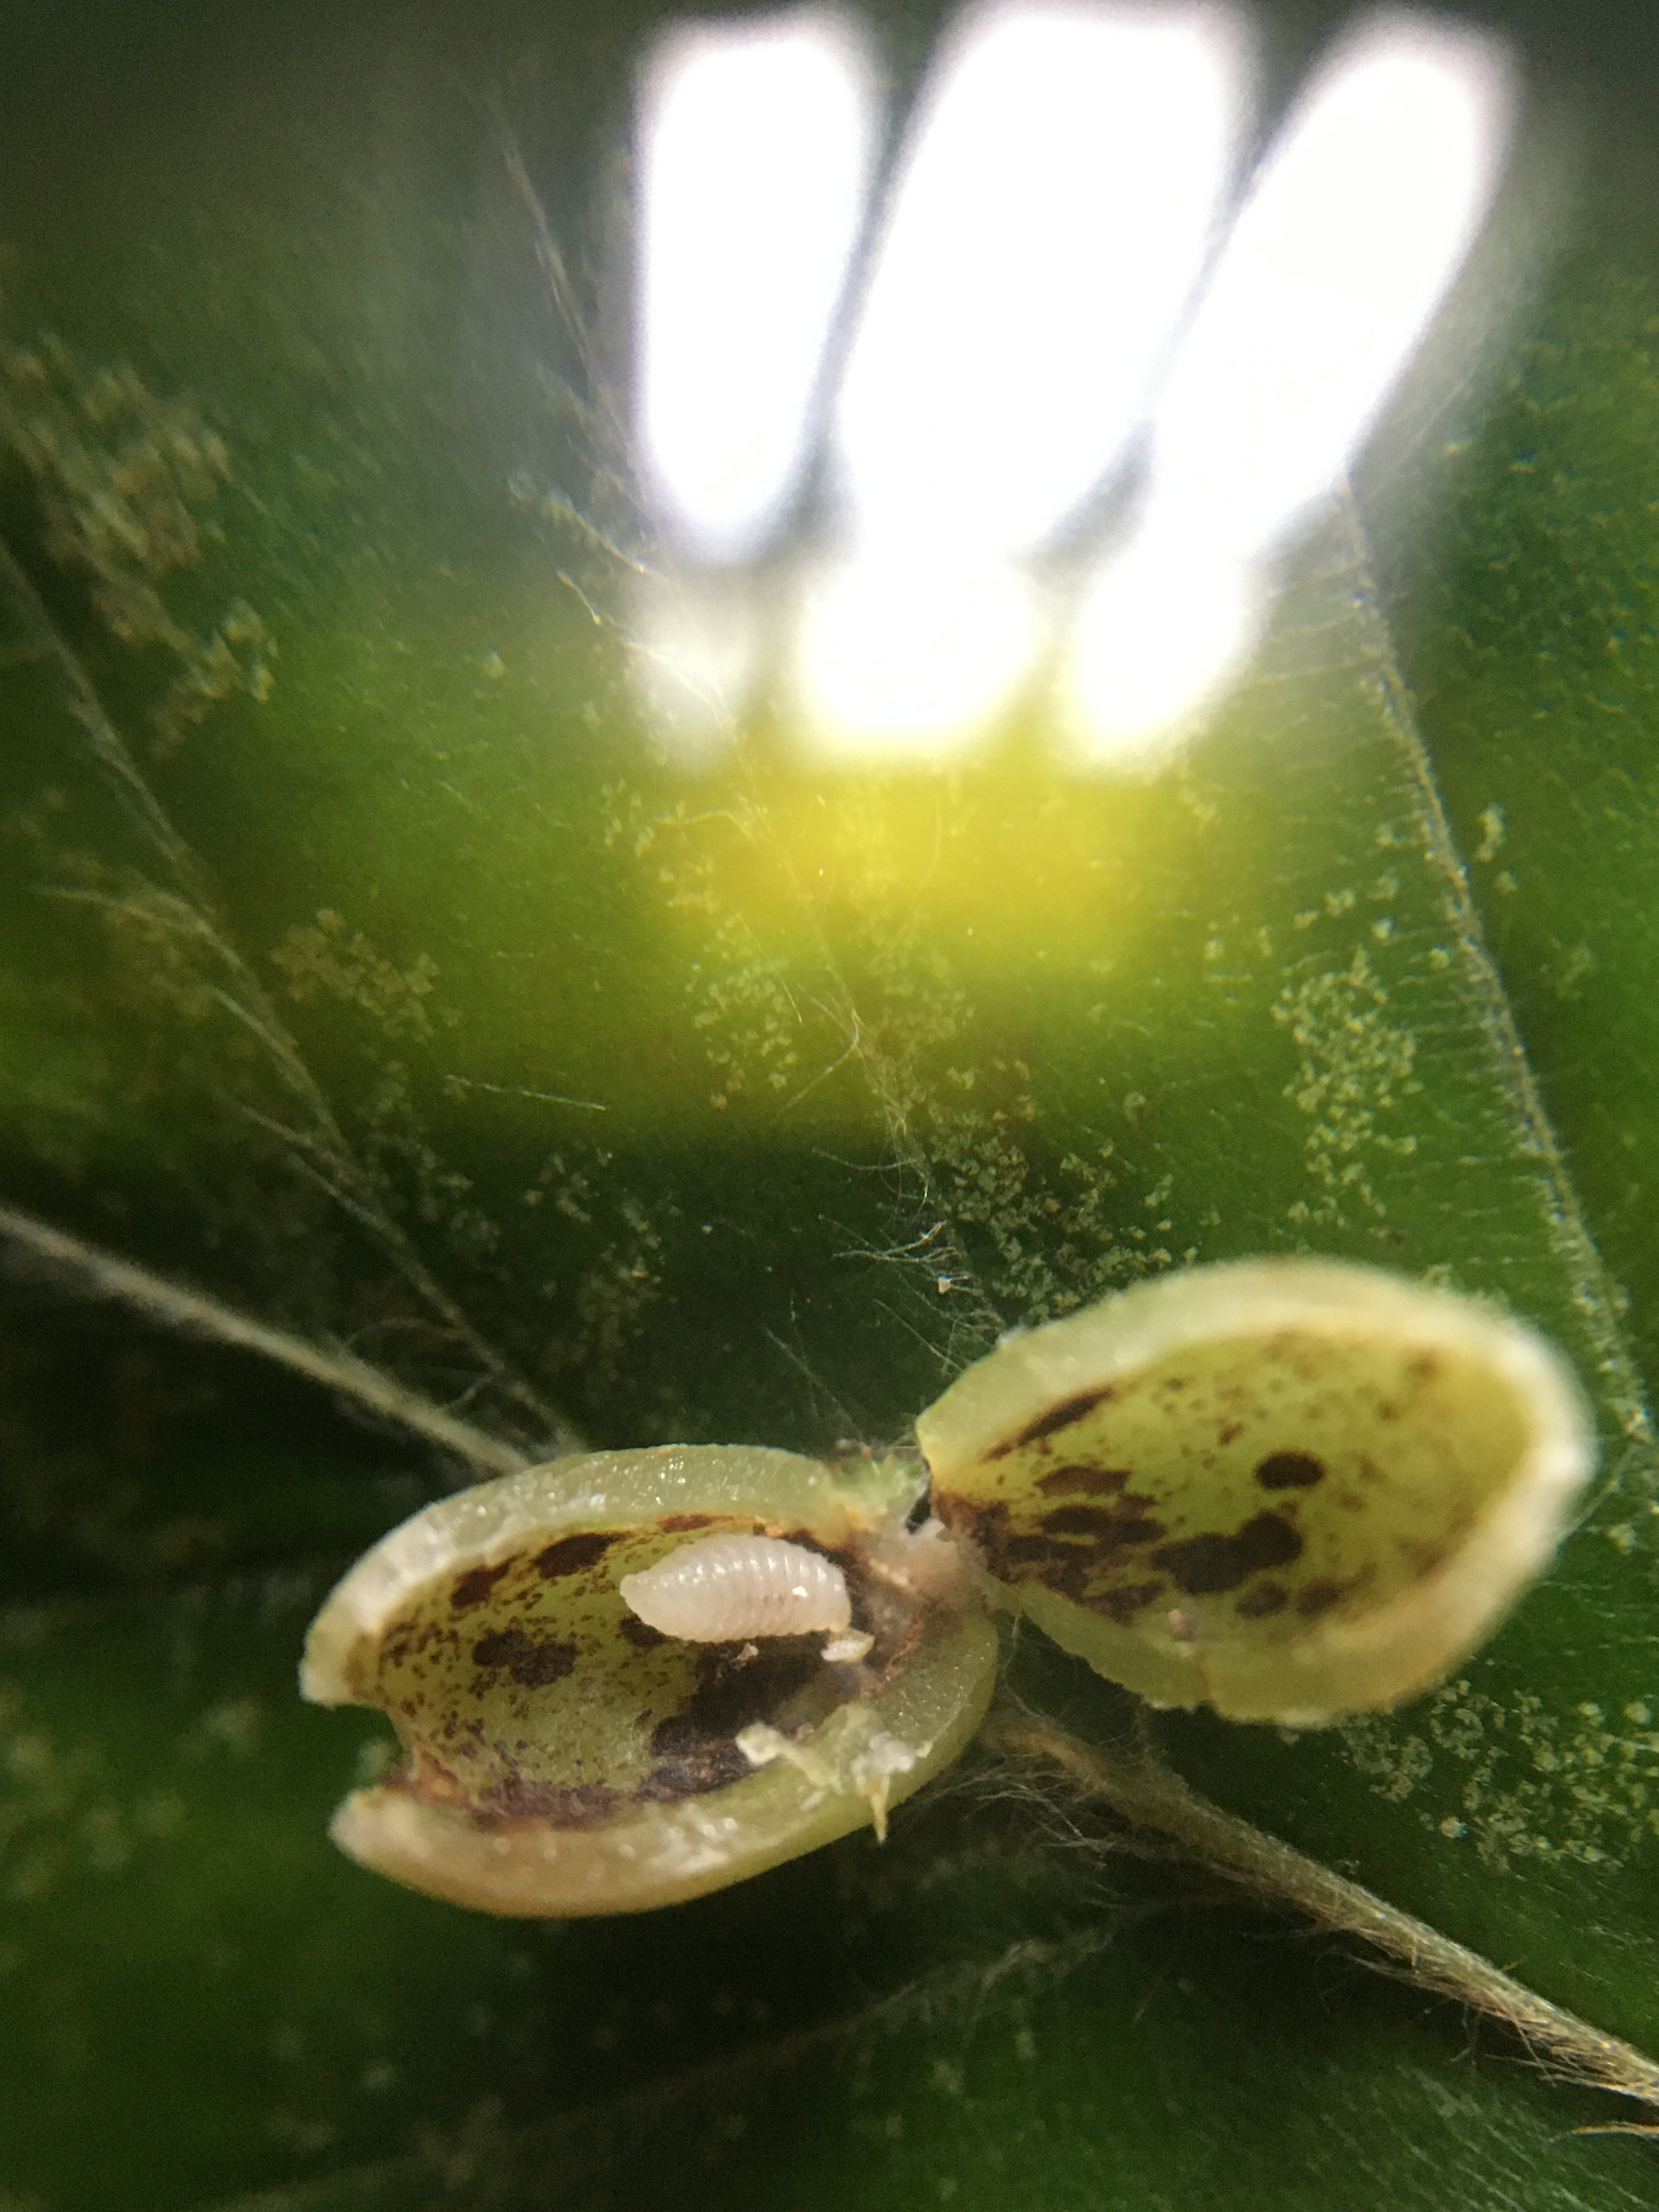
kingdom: Animalia
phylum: Arthropoda
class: Insecta
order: Diptera
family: Cecidomyiidae
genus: Mikiola
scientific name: Mikiola fagi
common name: Bøgegalmyg
